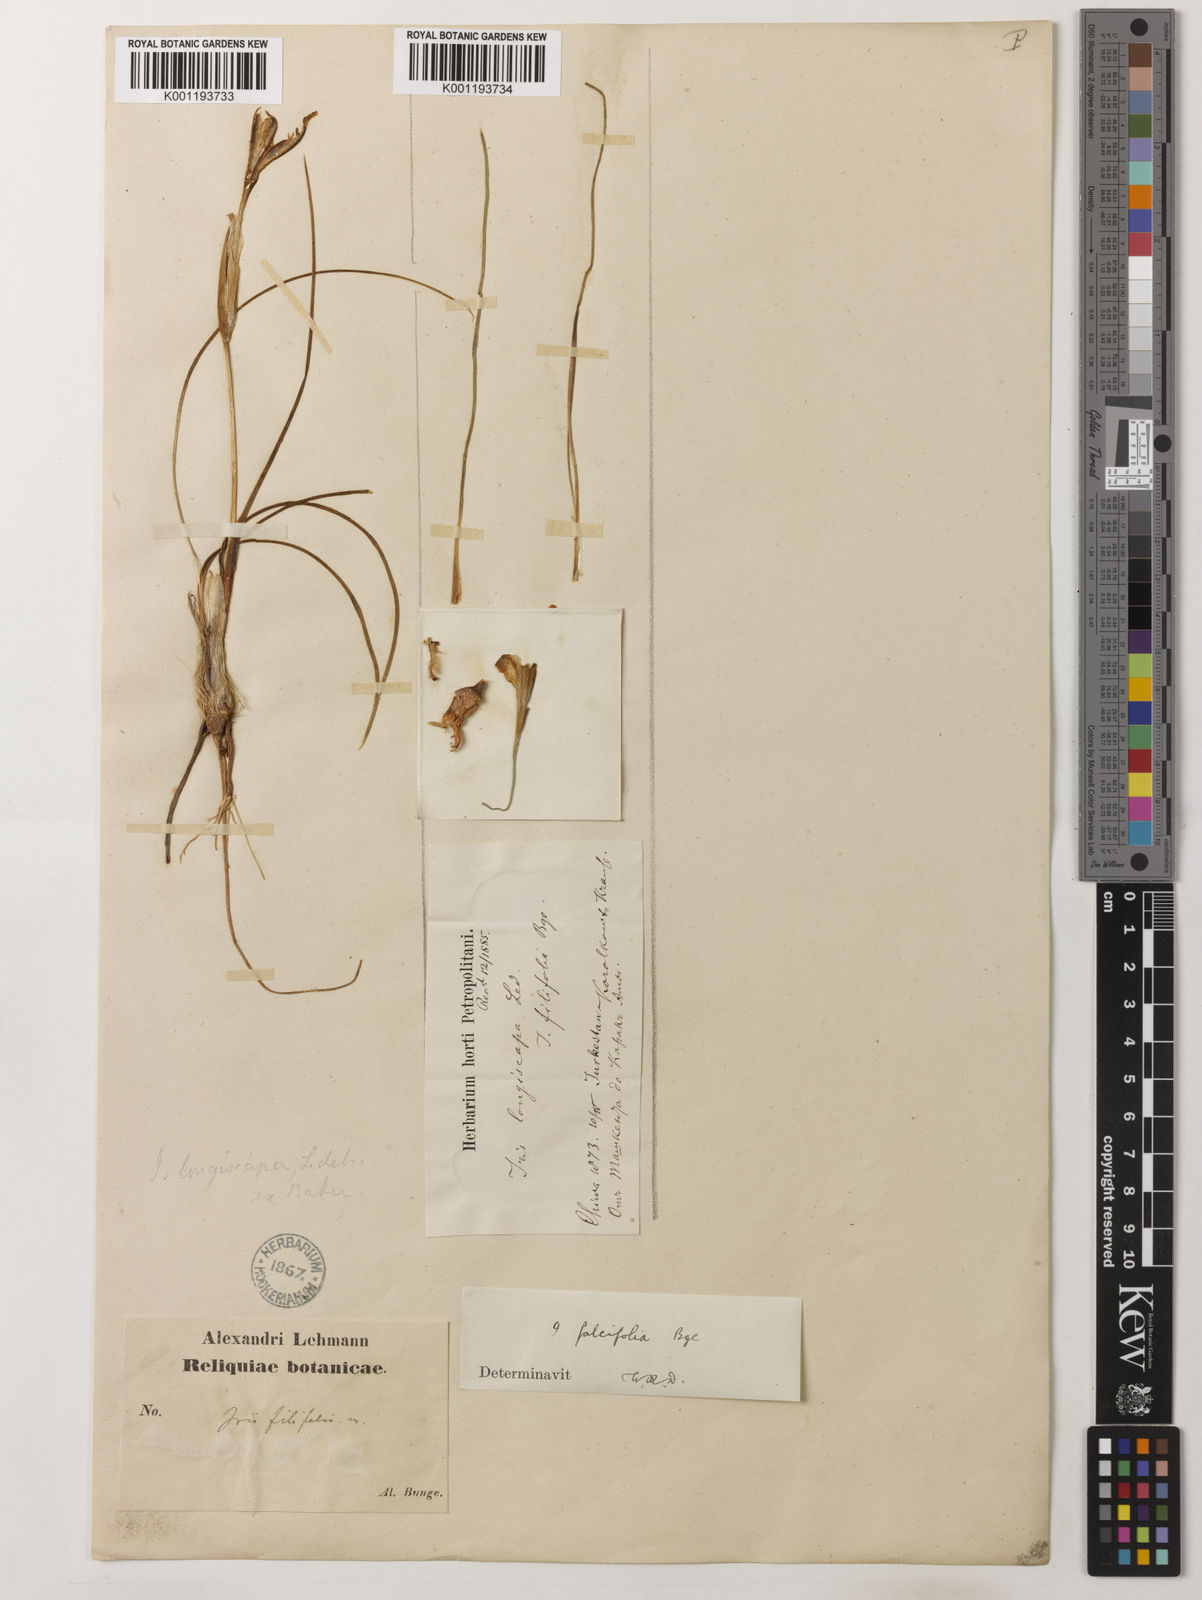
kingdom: Plantae
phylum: Tracheophyta
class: Liliopsida
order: Asparagales
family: Iridaceae
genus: Iris
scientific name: Iris
